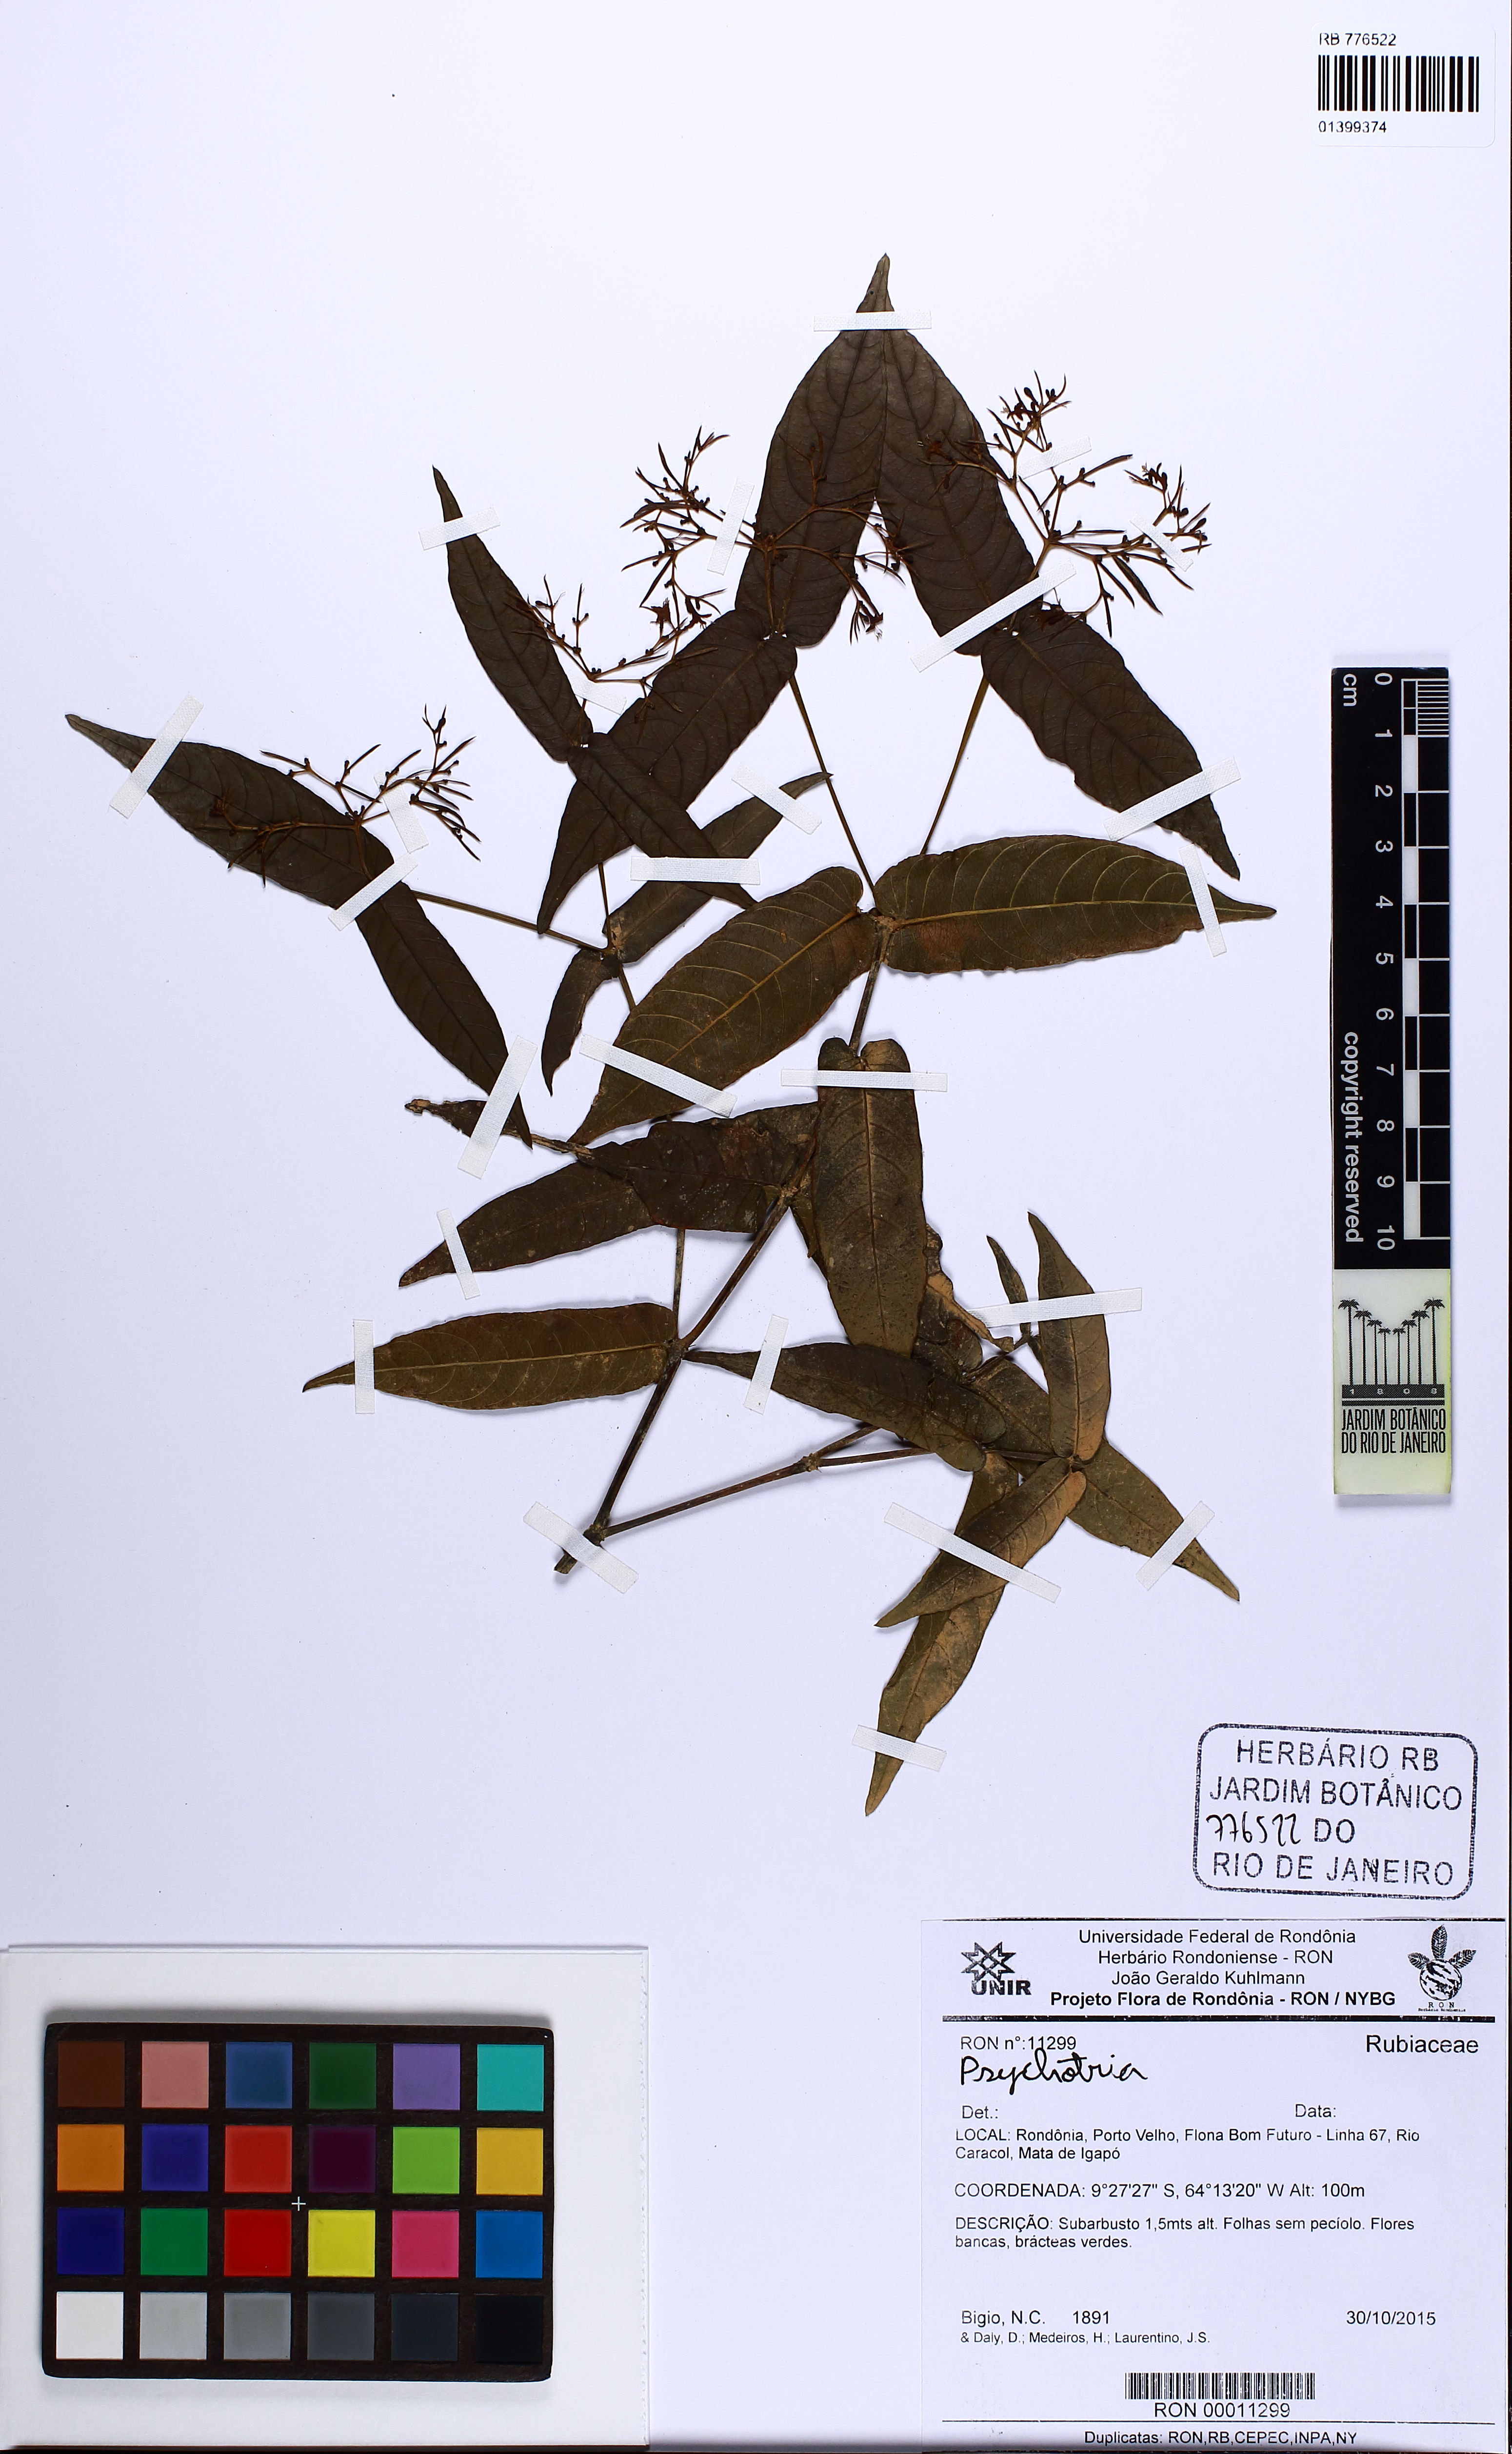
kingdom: Plantae
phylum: Tracheophyta
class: Magnoliopsida
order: Gentianales
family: Rubiaceae
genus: Psychotria
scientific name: Psychotria
